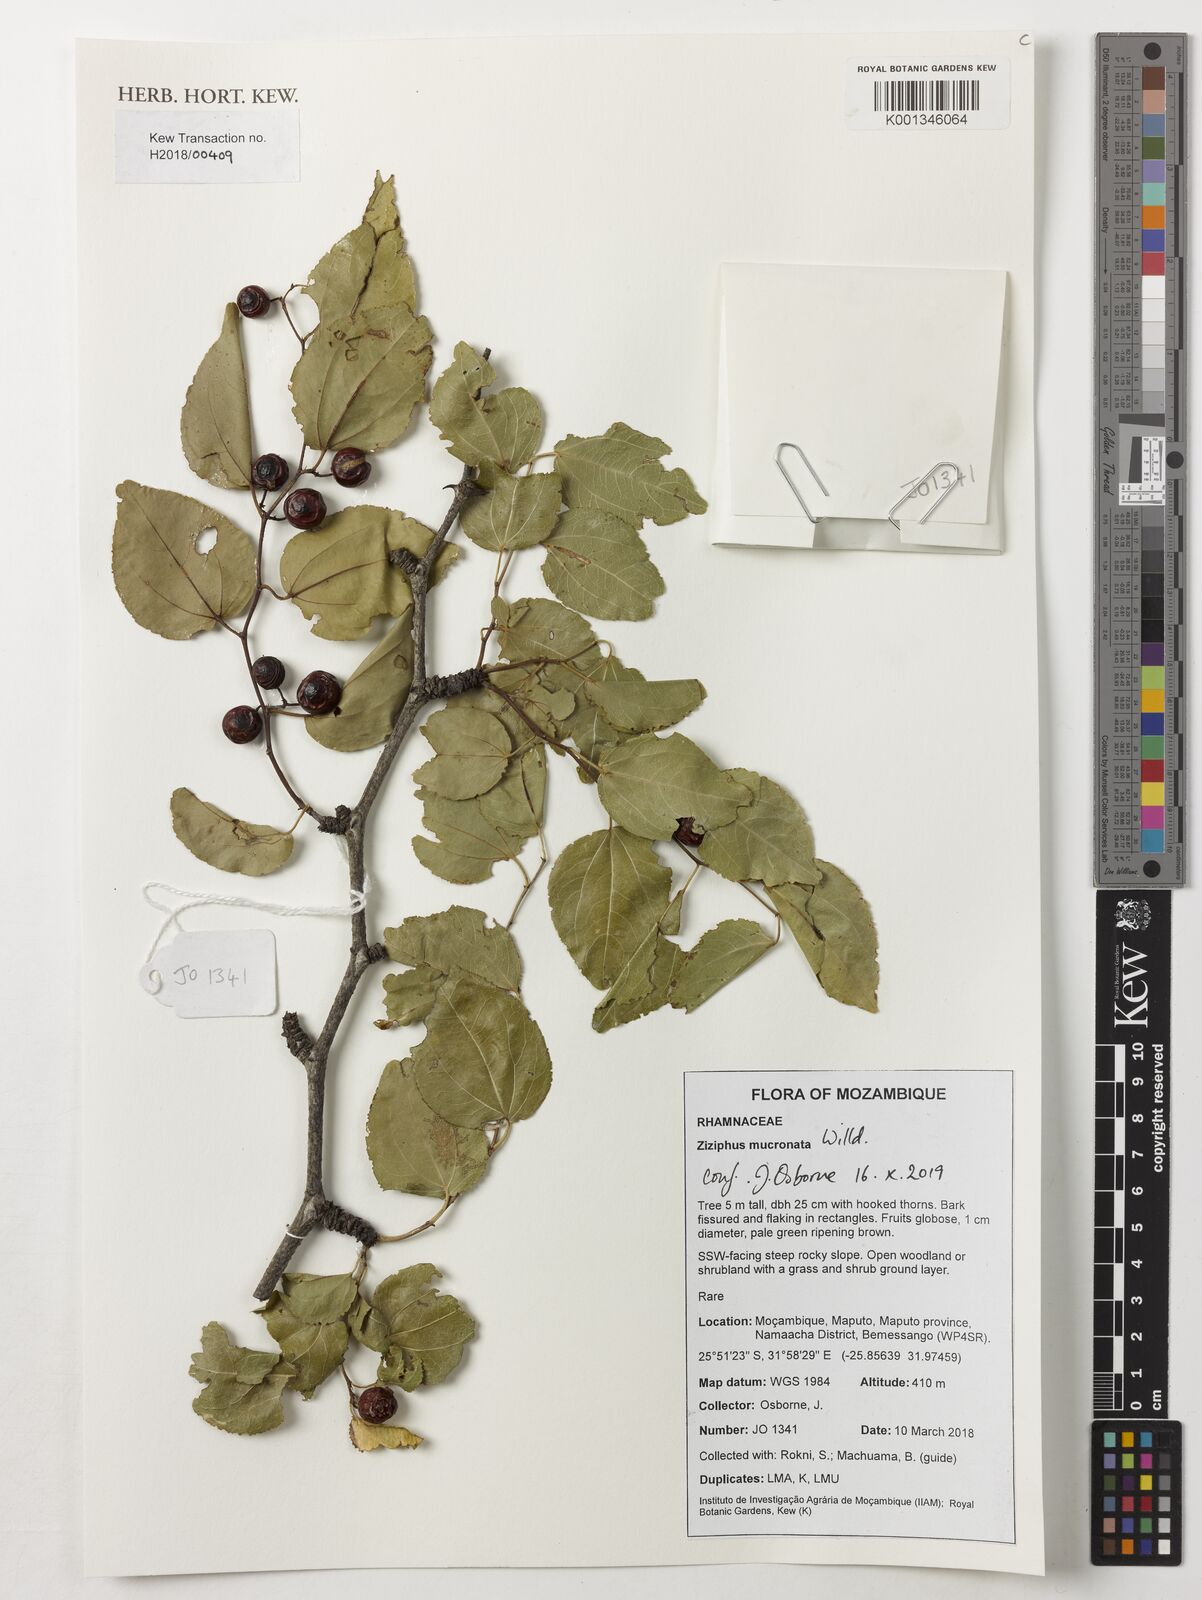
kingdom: Plantae
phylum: Tracheophyta
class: Magnoliopsida
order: Rosales
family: Rhamnaceae
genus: Ziziphus
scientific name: Ziziphus mucronata
